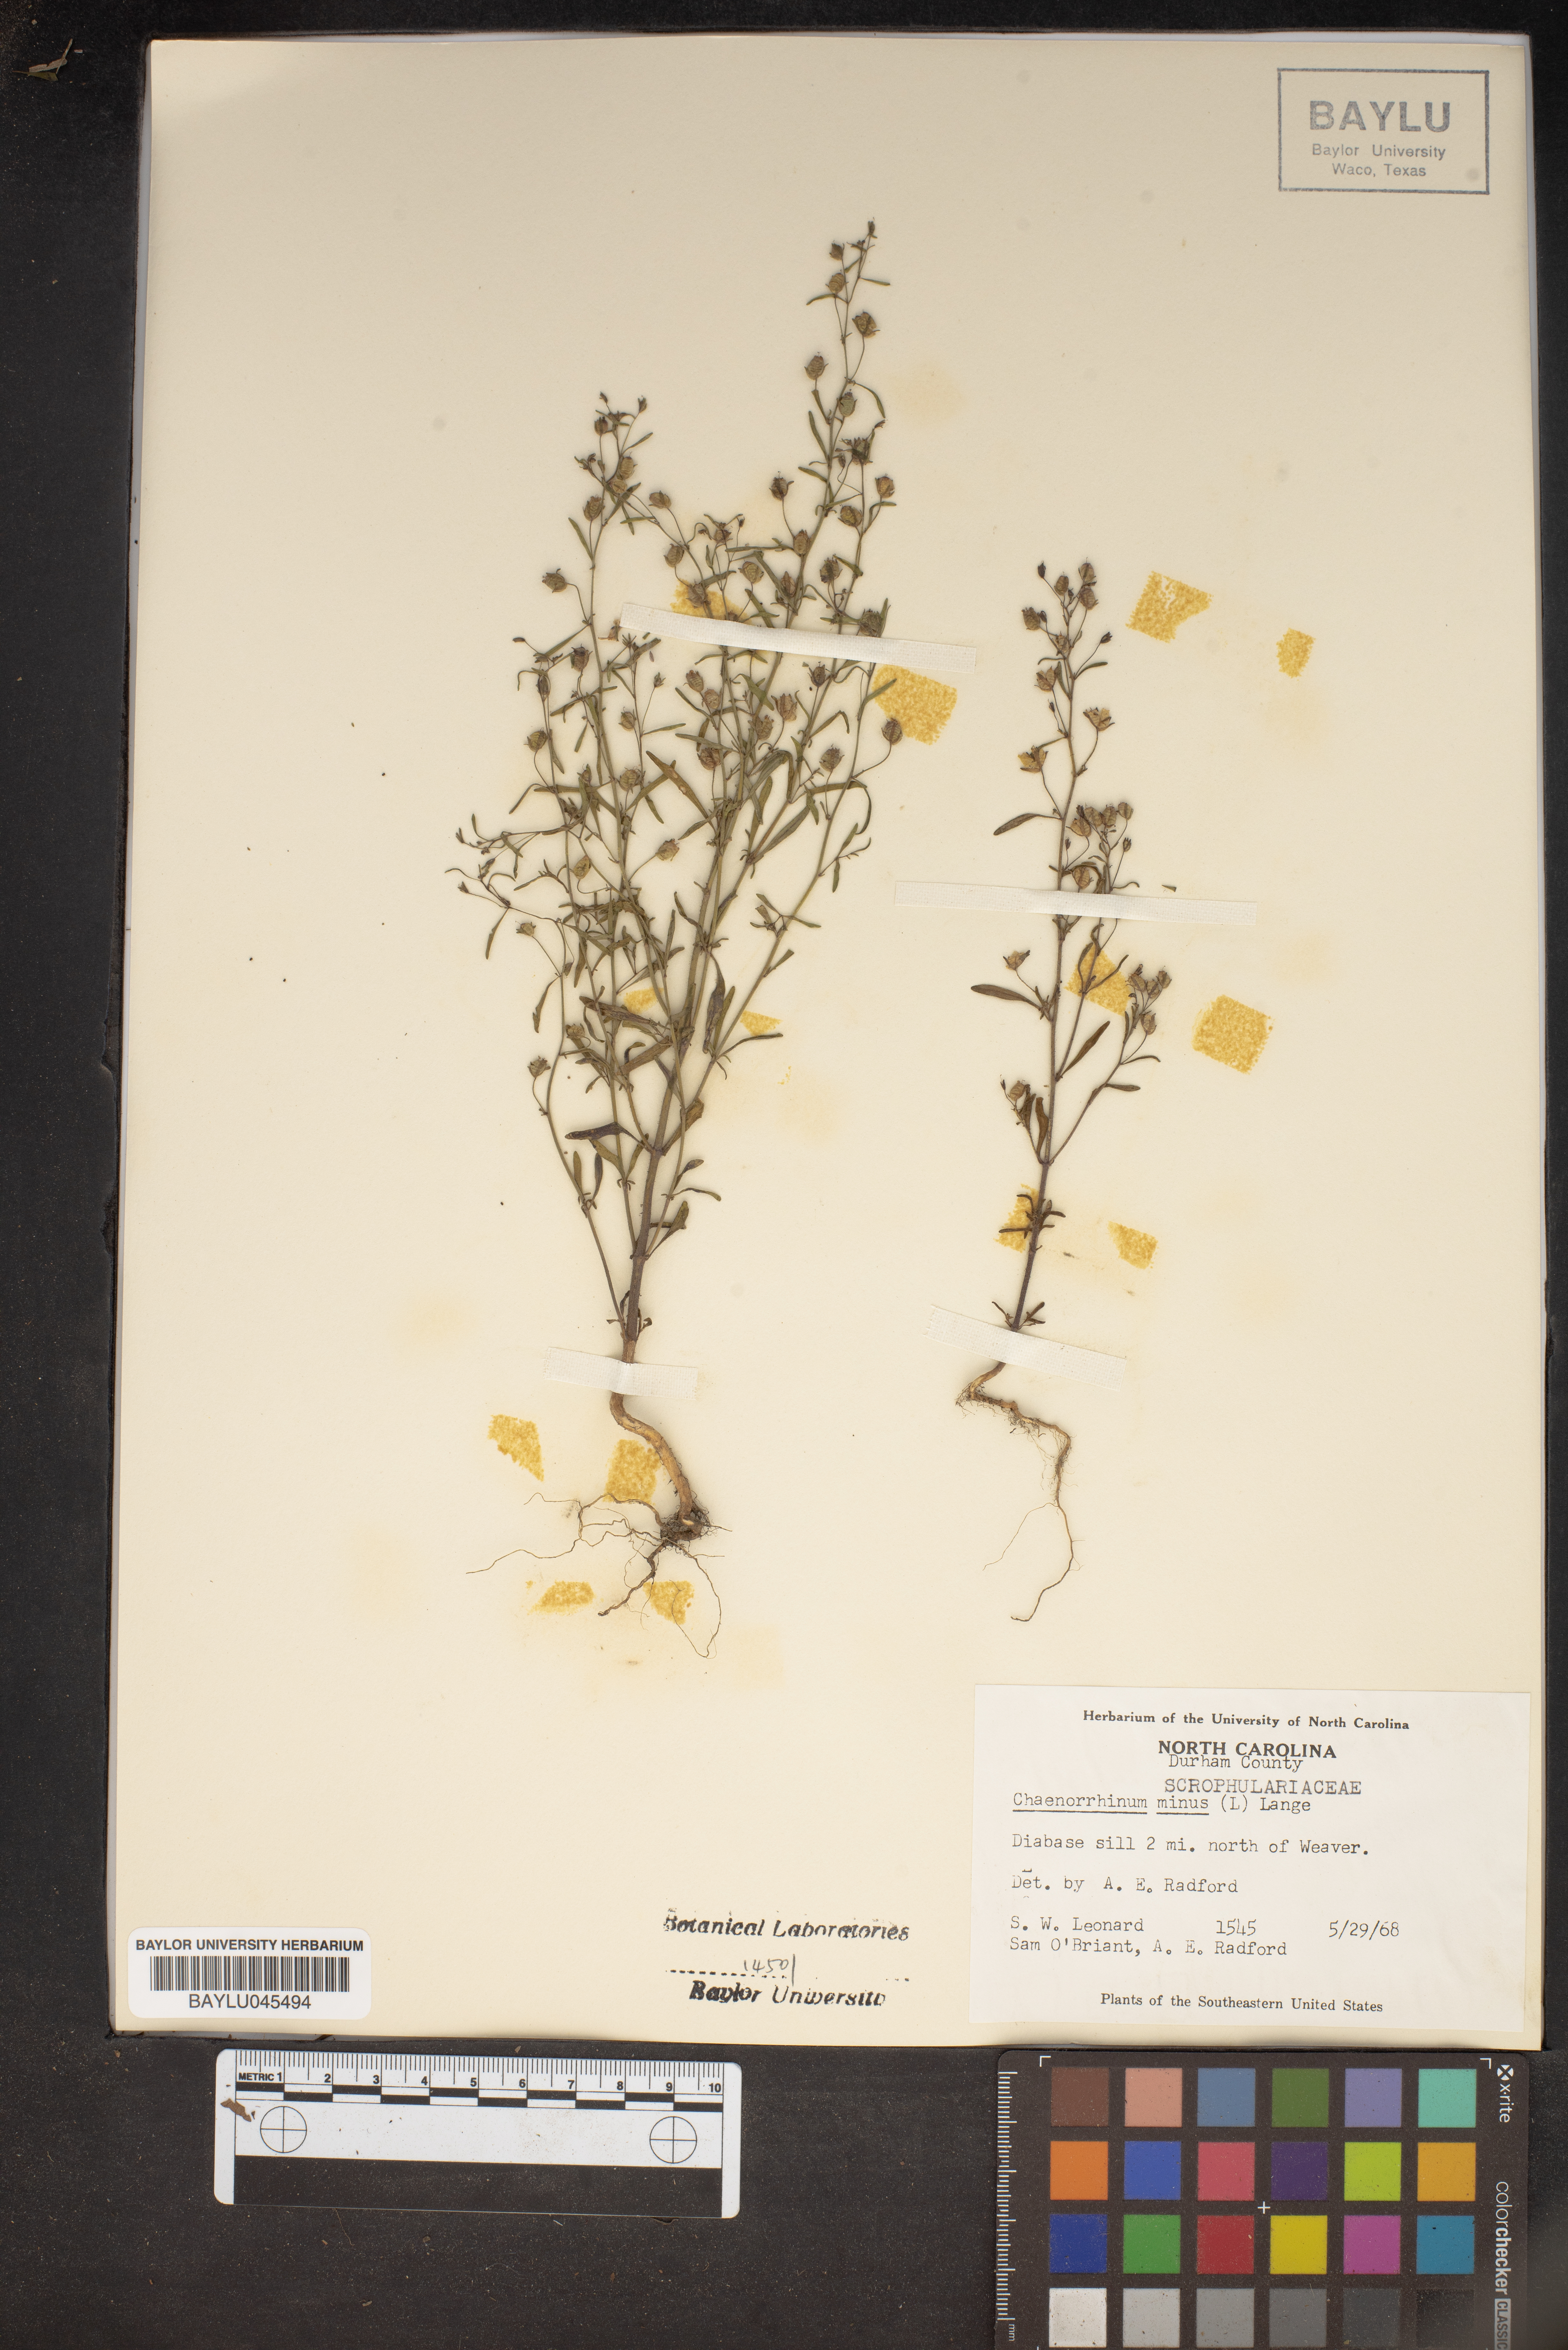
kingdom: Plantae
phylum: Tracheophyta
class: Magnoliopsida
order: Lamiales
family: Plantaginaceae
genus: Chaenorhinum
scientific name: Chaenorhinum minus
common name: Dwarf snapdragon
